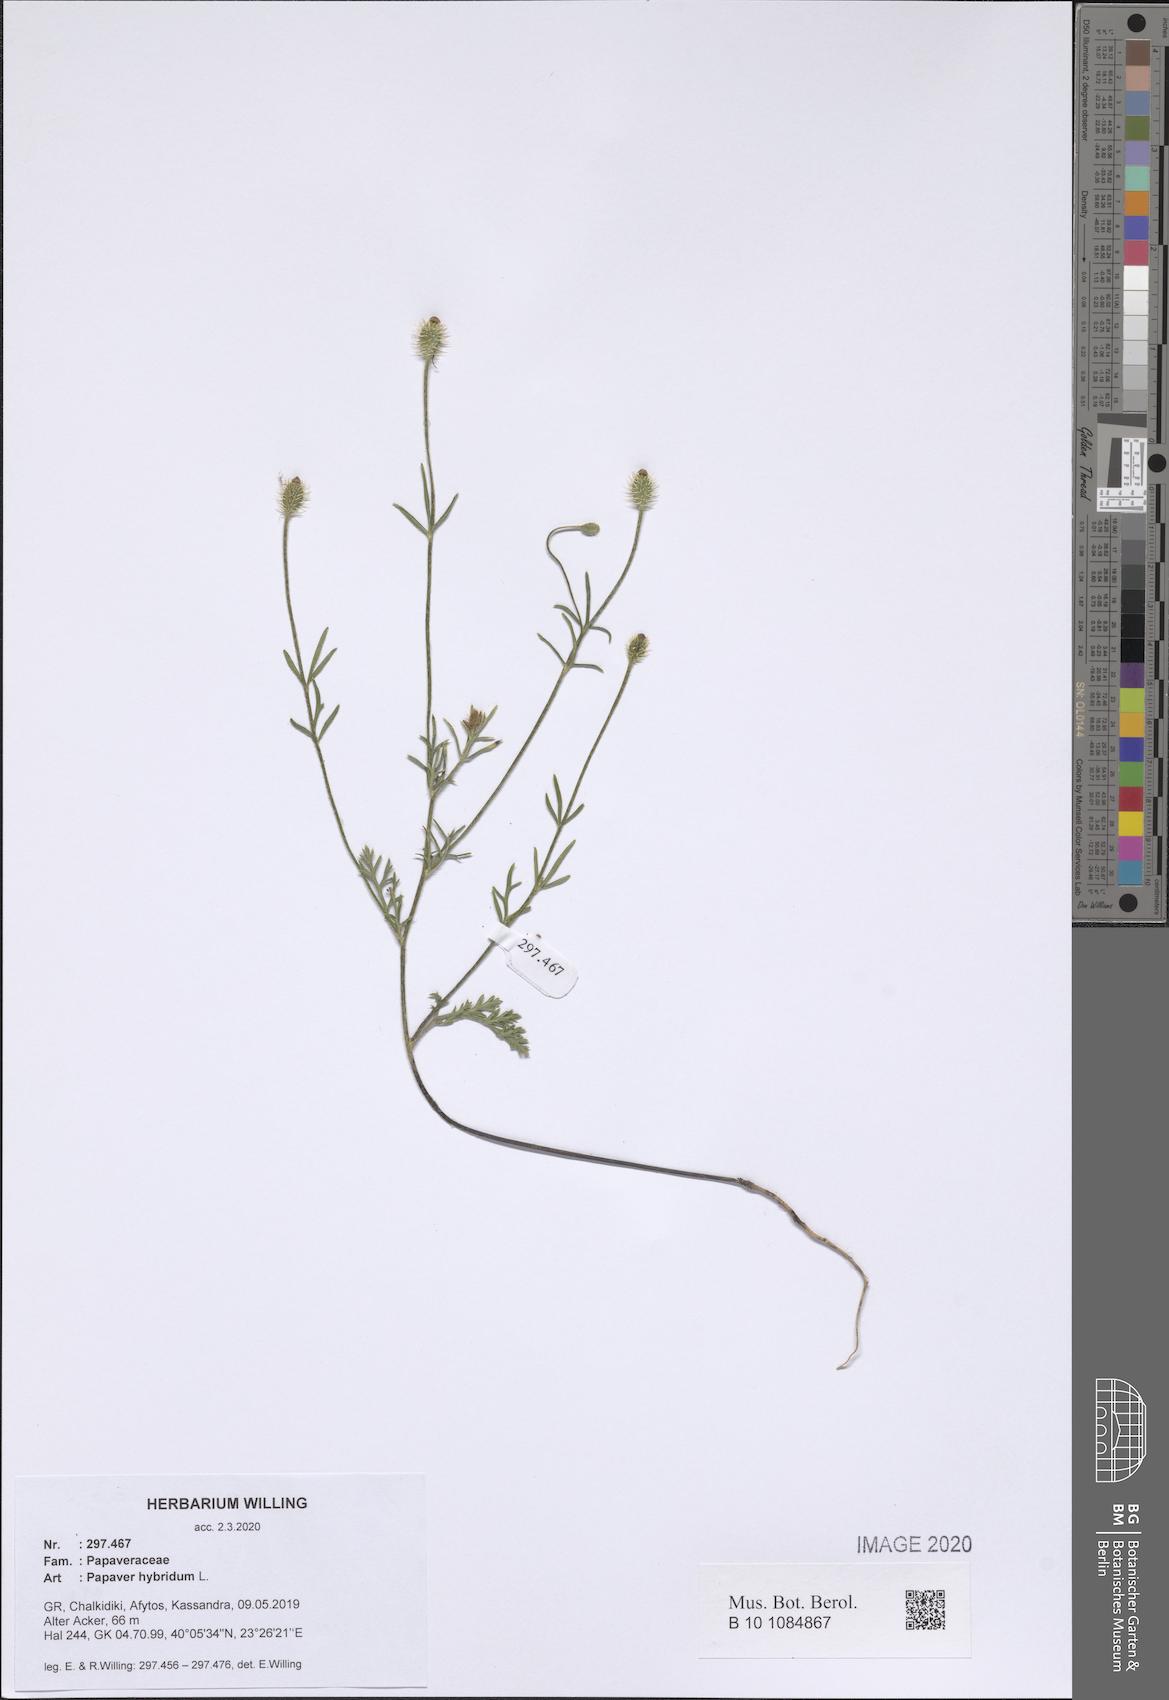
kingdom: Plantae
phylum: Tracheophyta
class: Magnoliopsida
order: Ranunculales
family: Papaveraceae
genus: Roemeria
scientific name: Roemeria hispida
